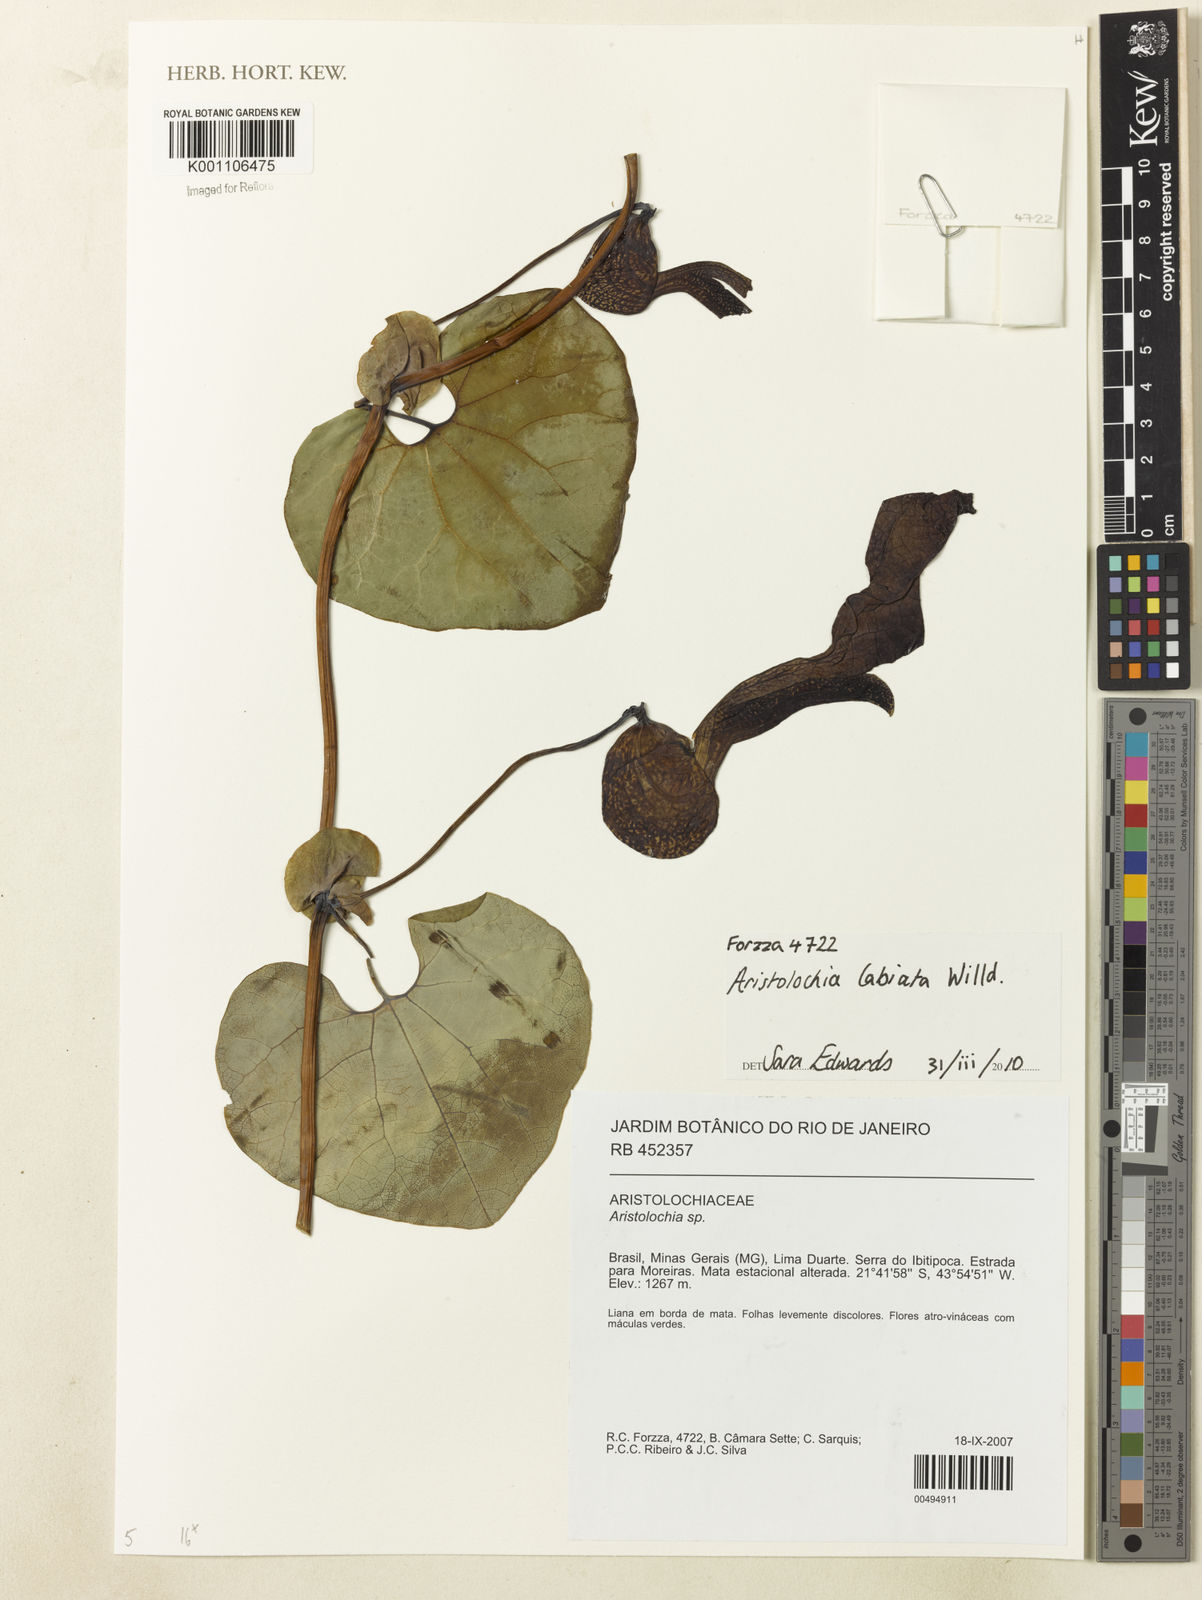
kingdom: Plantae
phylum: Tracheophyta
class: Magnoliopsida
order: Piperales
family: Aristolochiaceae
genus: Aristolochia
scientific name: Aristolochia labiata
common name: Mottled dutchman's pipe
